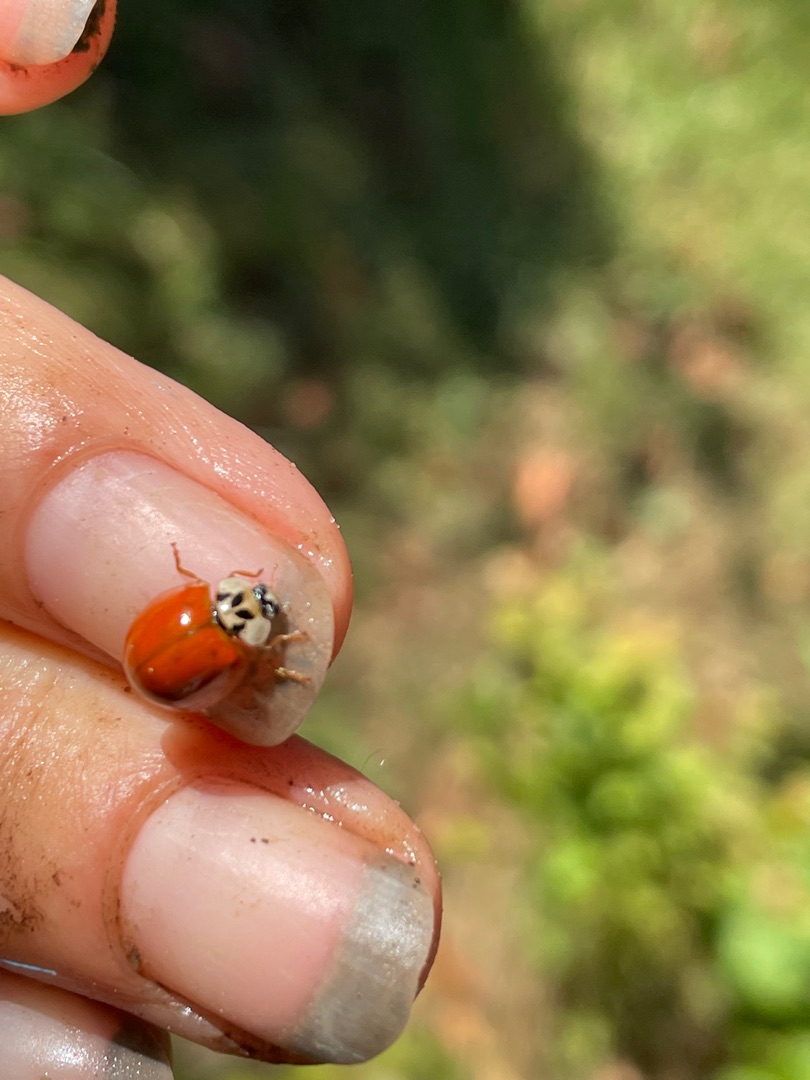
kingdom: Animalia
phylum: Arthropoda
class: Insecta
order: Coleoptera
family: Coccinellidae
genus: Harmonia
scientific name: Harmonia axyridis
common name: Harlekinmariehøne
